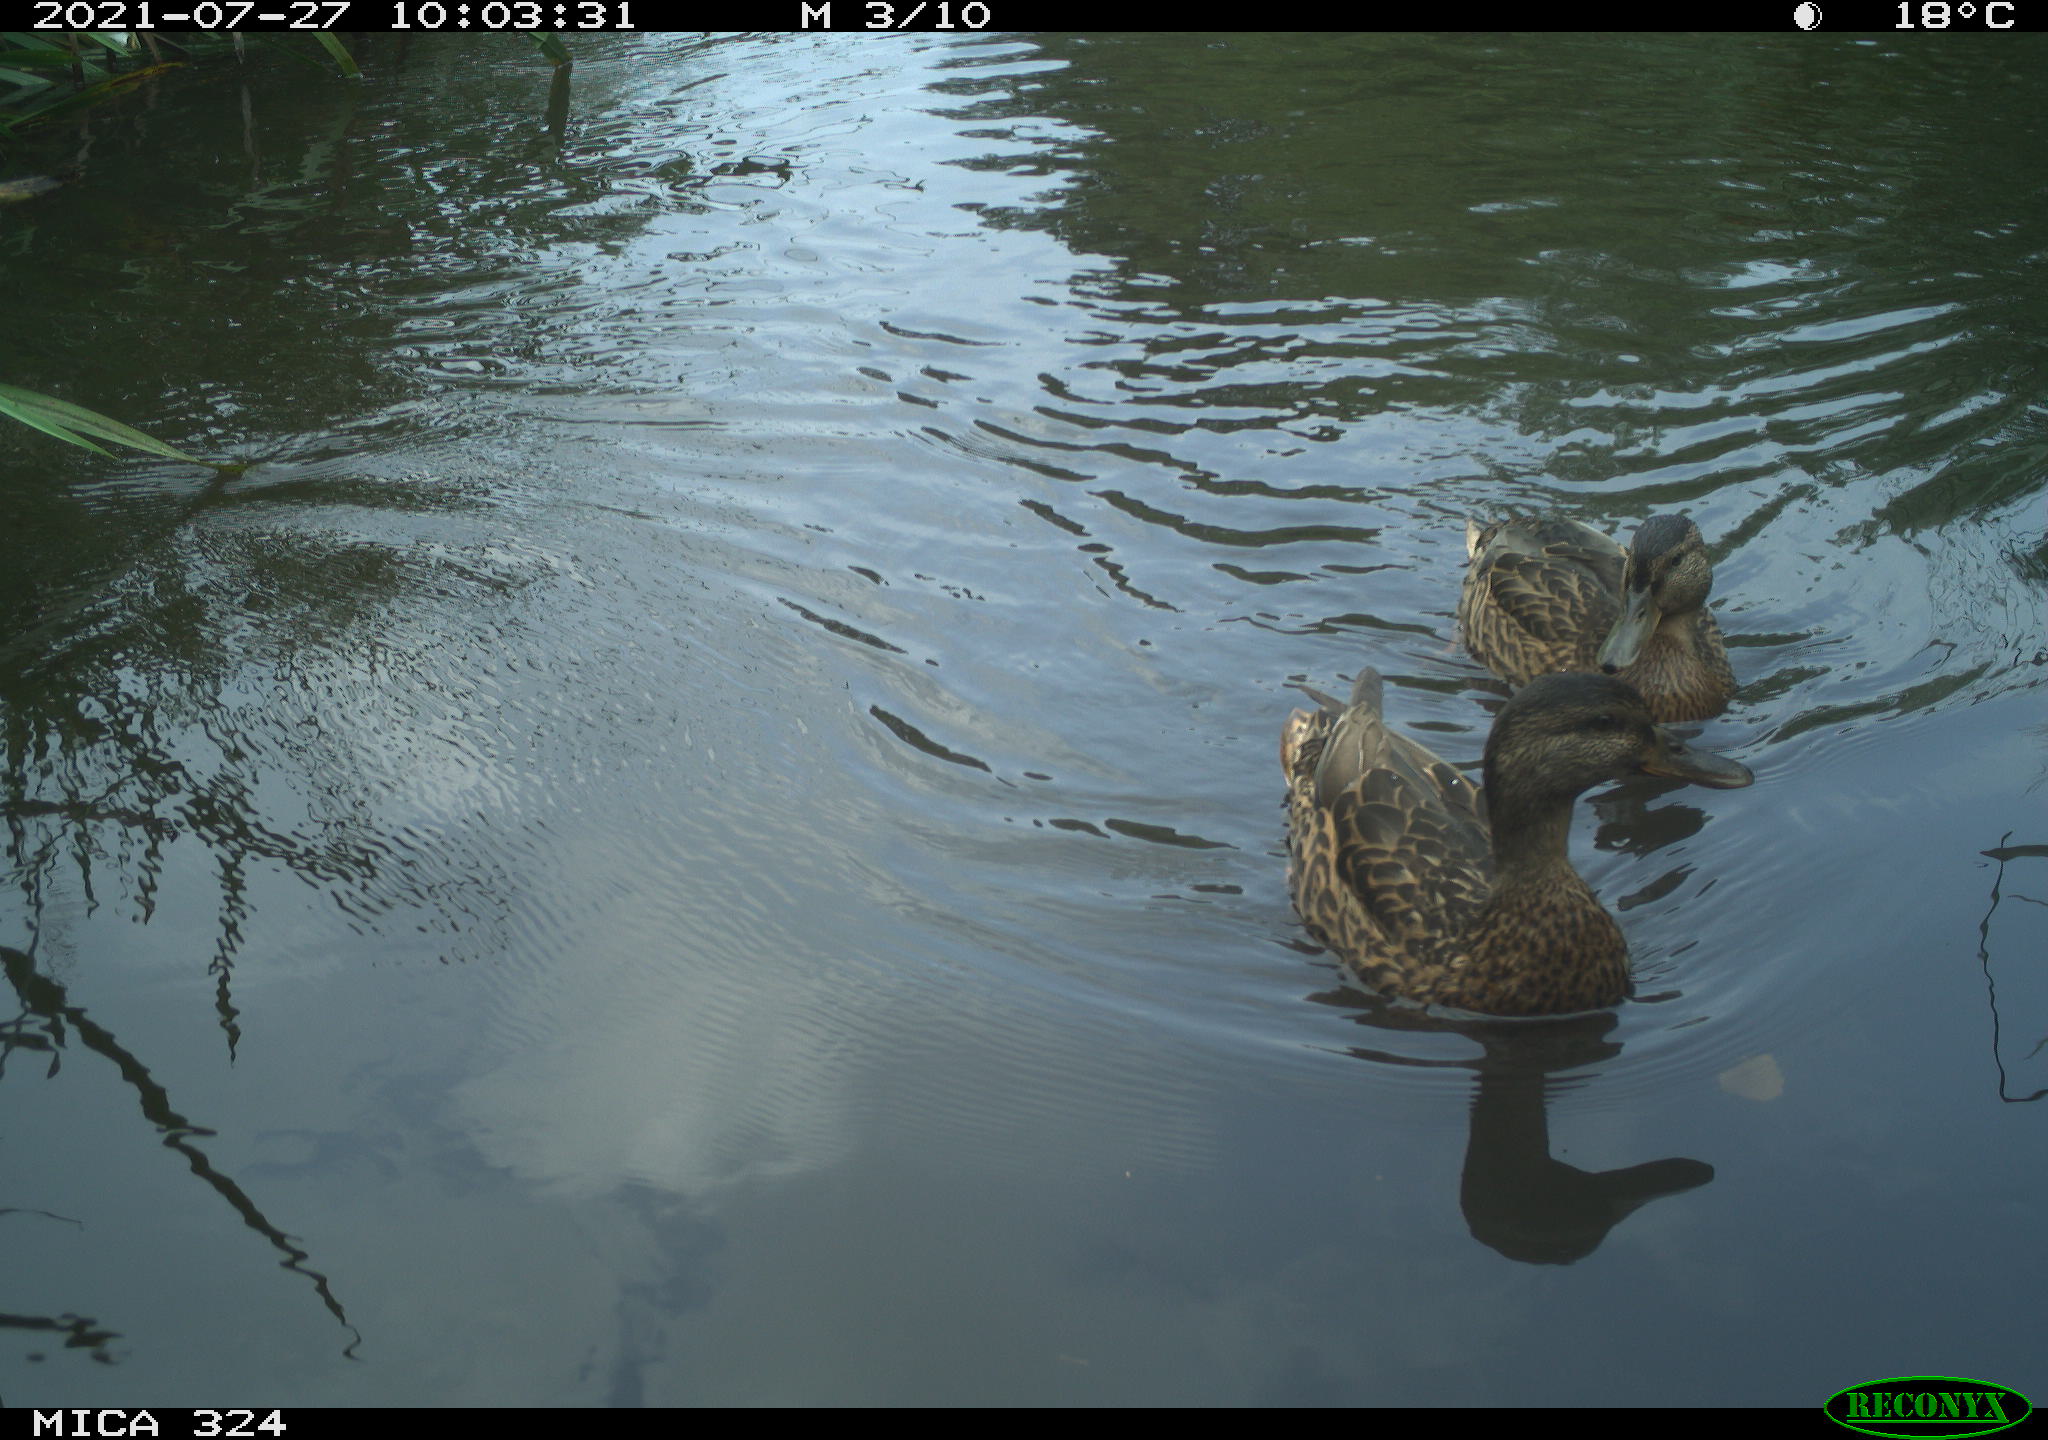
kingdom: Animalia
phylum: Chordata
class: Aves
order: Anseriformes
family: Anatidae
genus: Anas
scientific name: Anas platyrhynchos
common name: Mallard
